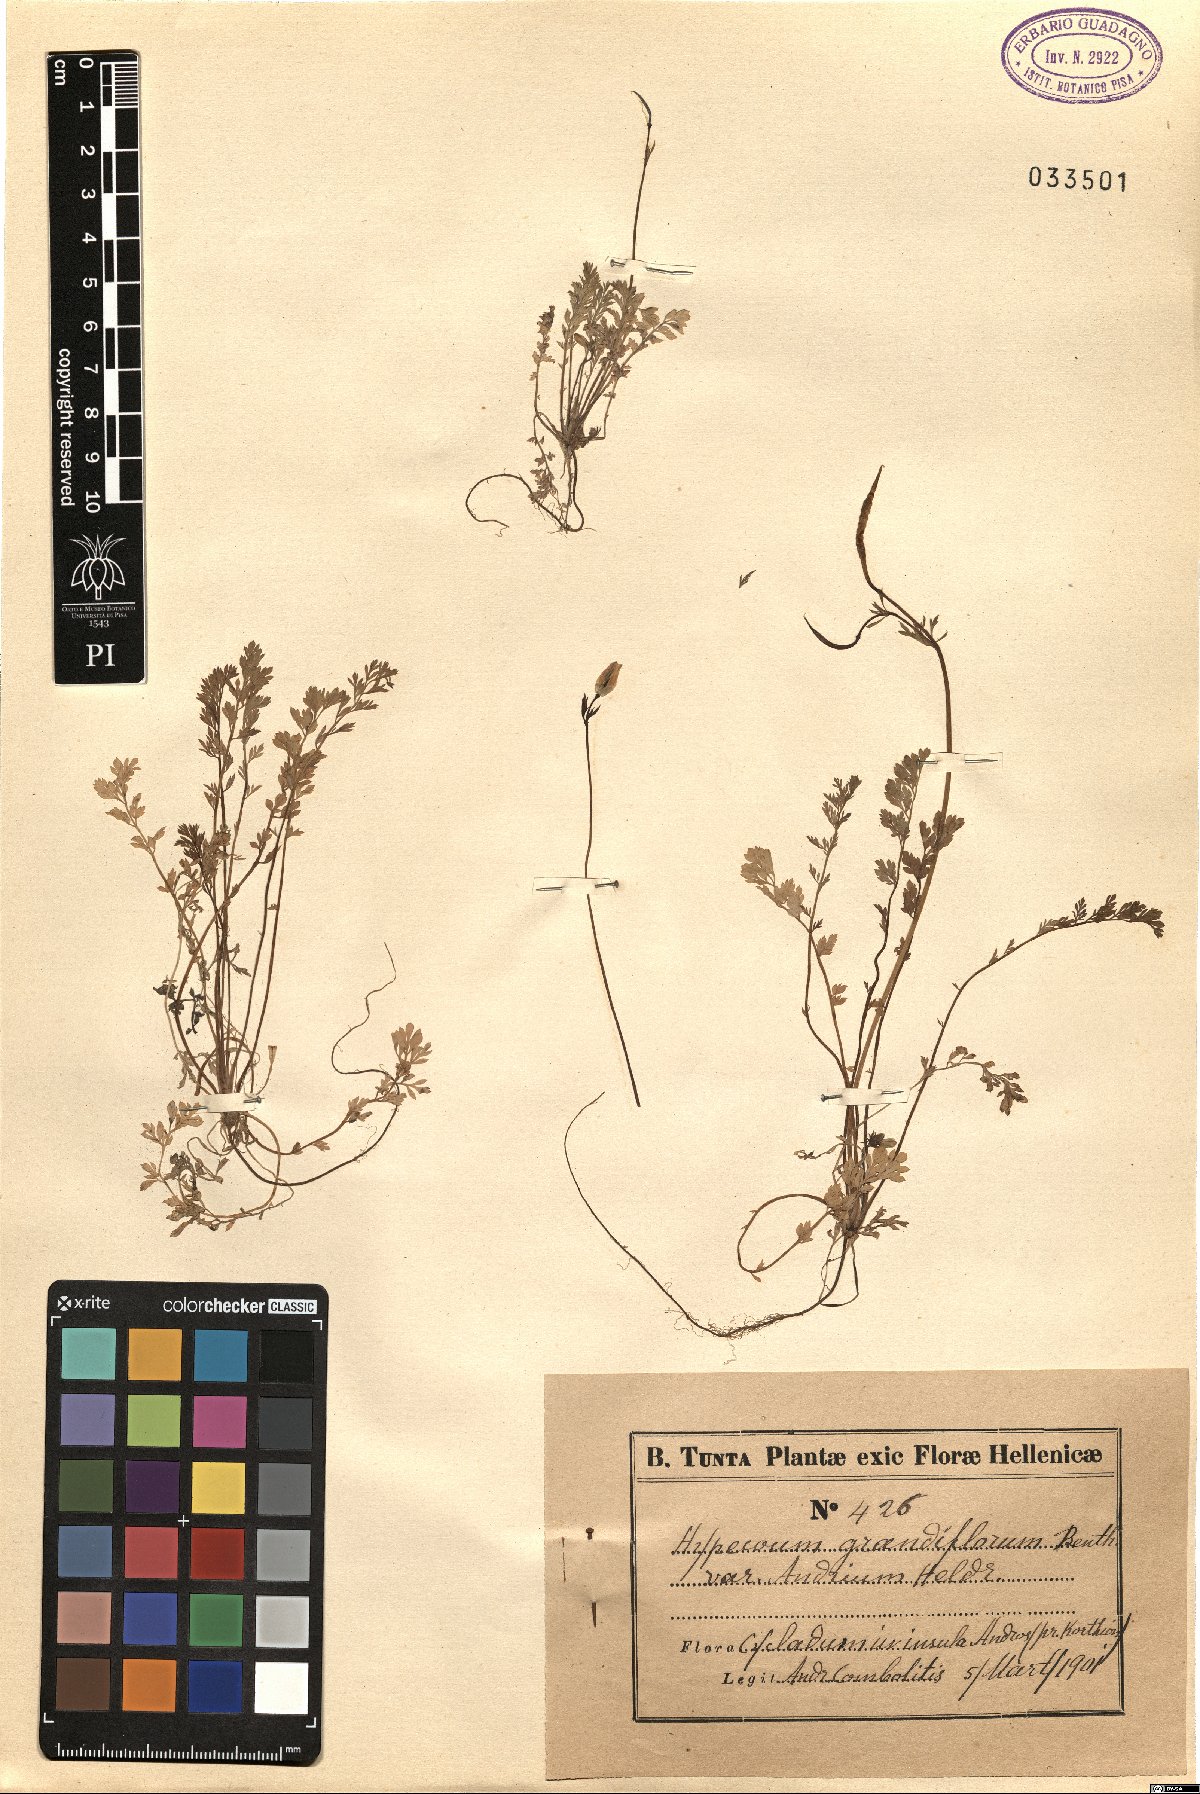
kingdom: Plantae
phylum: Tracheophyta
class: Magnoliopsida
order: Ranunculales
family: Papaveraceae
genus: Hypecoum
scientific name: Hypecoum imberbe
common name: Sicklefruit hypecoum
